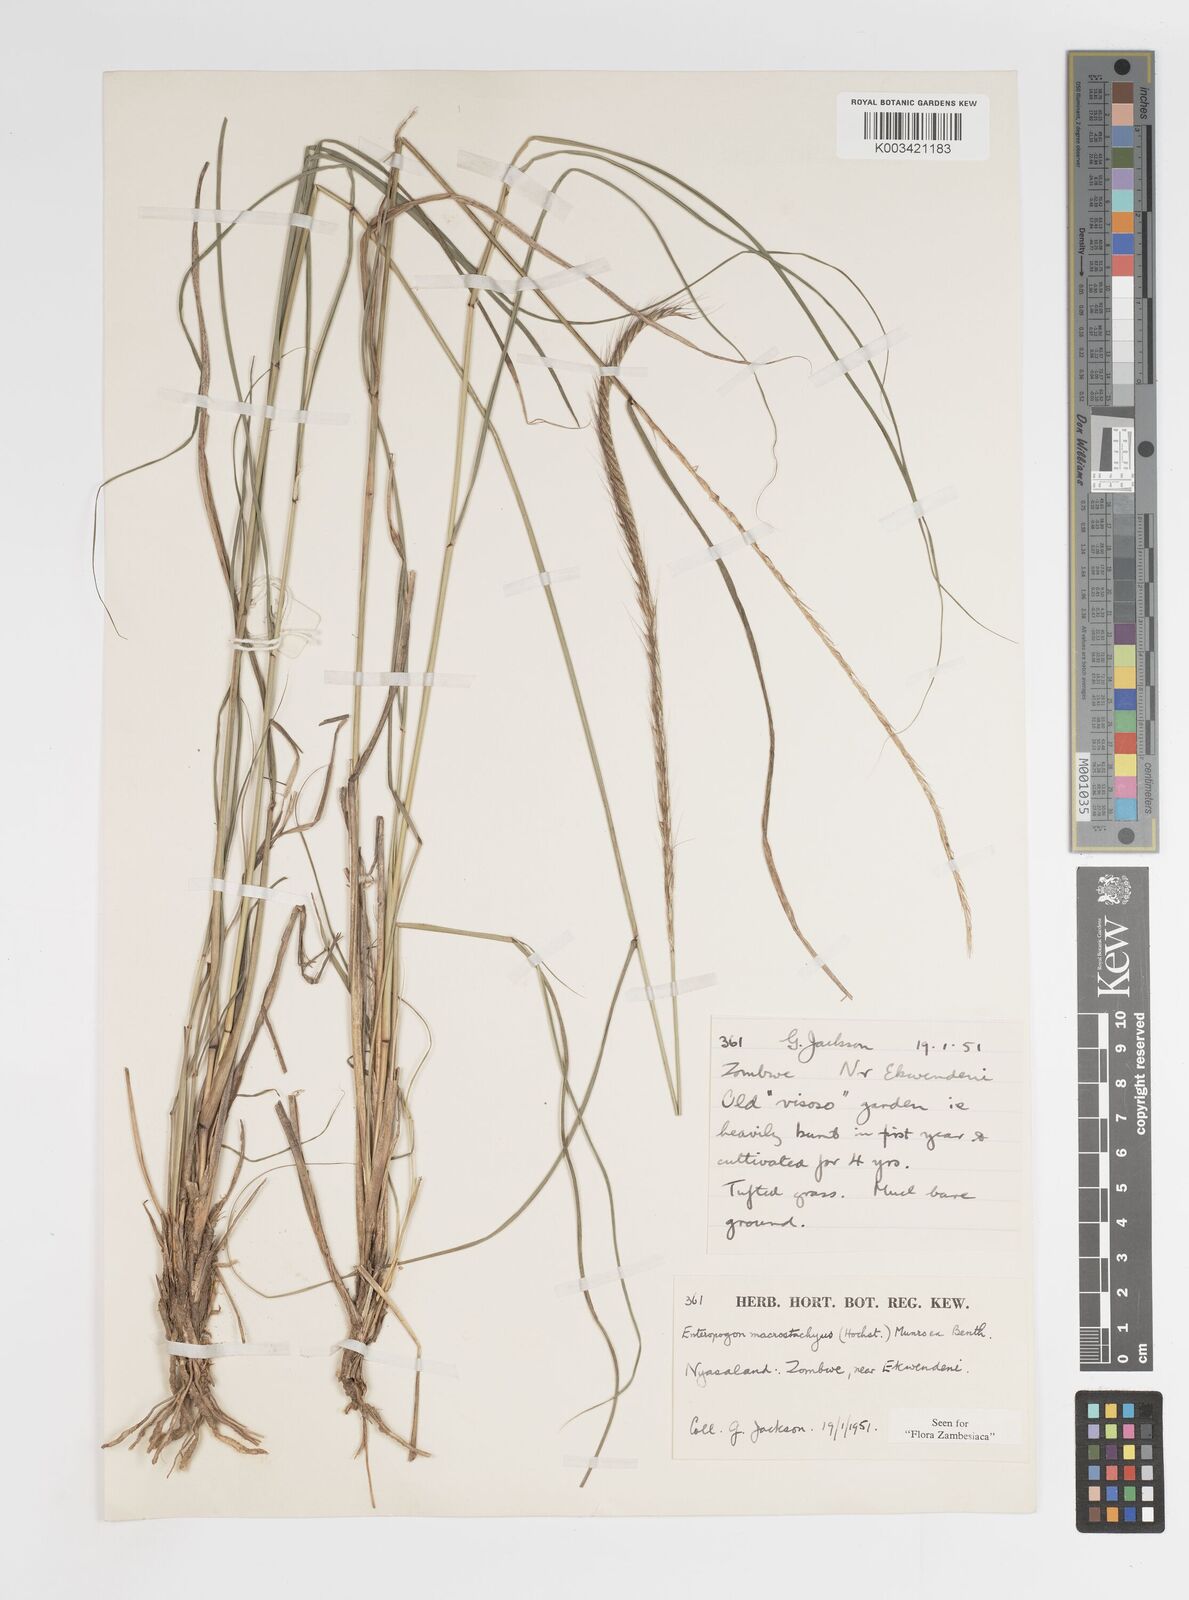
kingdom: Plantae
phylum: Tracheophyta
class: Liliopsida
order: Poales
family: Poaceae
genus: Enteropogon
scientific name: Enteropogon macrostachyus
